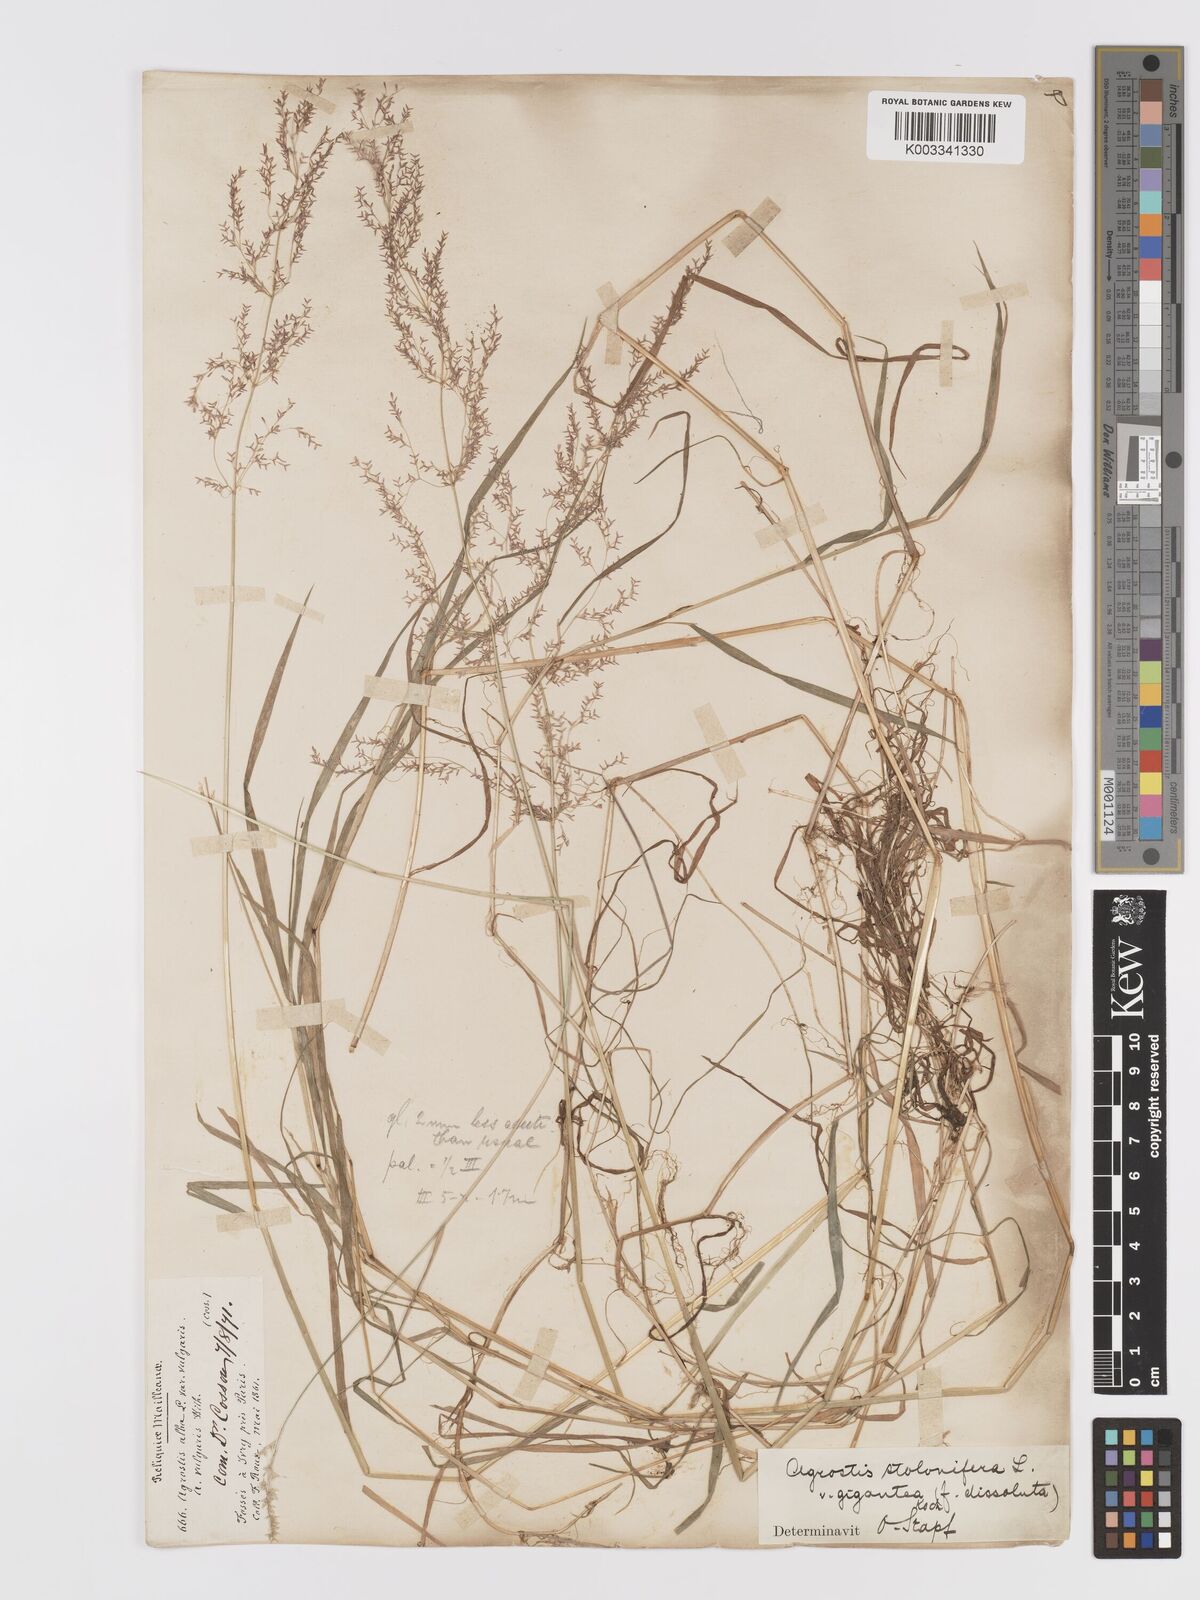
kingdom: Plantae
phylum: Tracheophyta
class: Liliopsida
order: Poales
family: Poaceae
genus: Agrostis
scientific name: Agrostis gigantea
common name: Black bent
